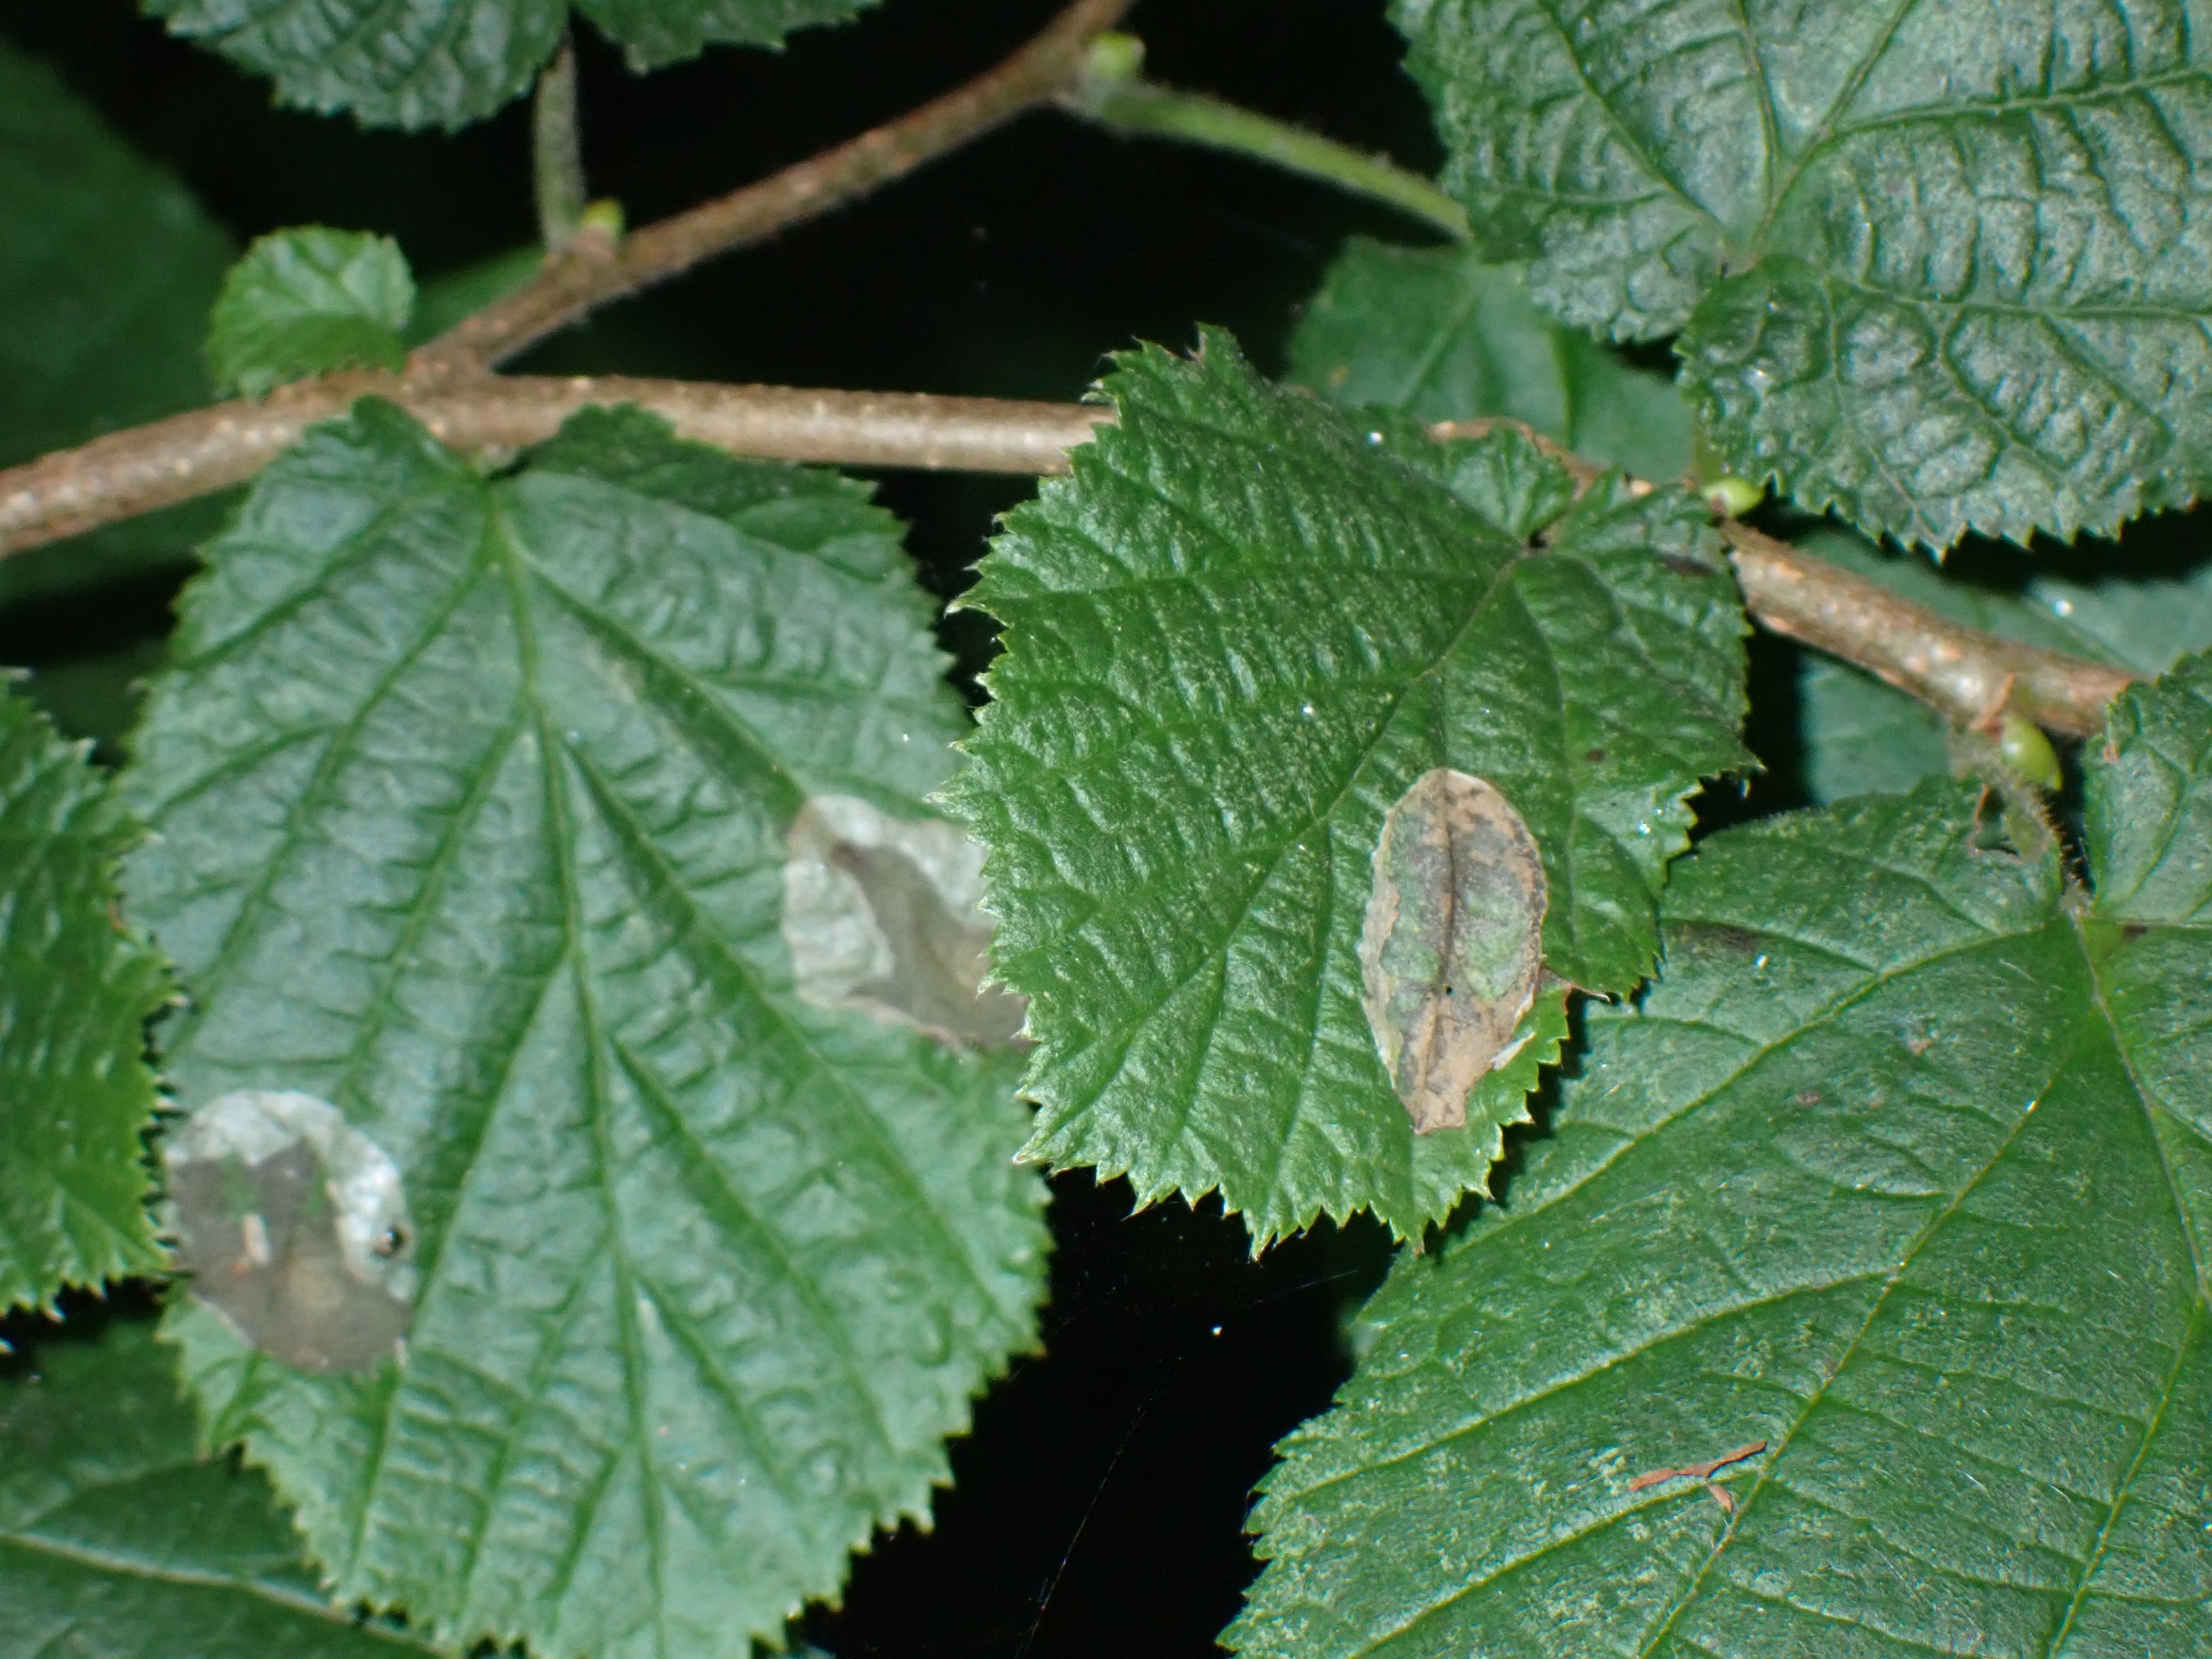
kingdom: Animalia
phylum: Arthropoda
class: Insecta
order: Lepidoptera
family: Gracillariidae
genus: Phyllonorycter
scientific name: Phyllonorycter coryli
